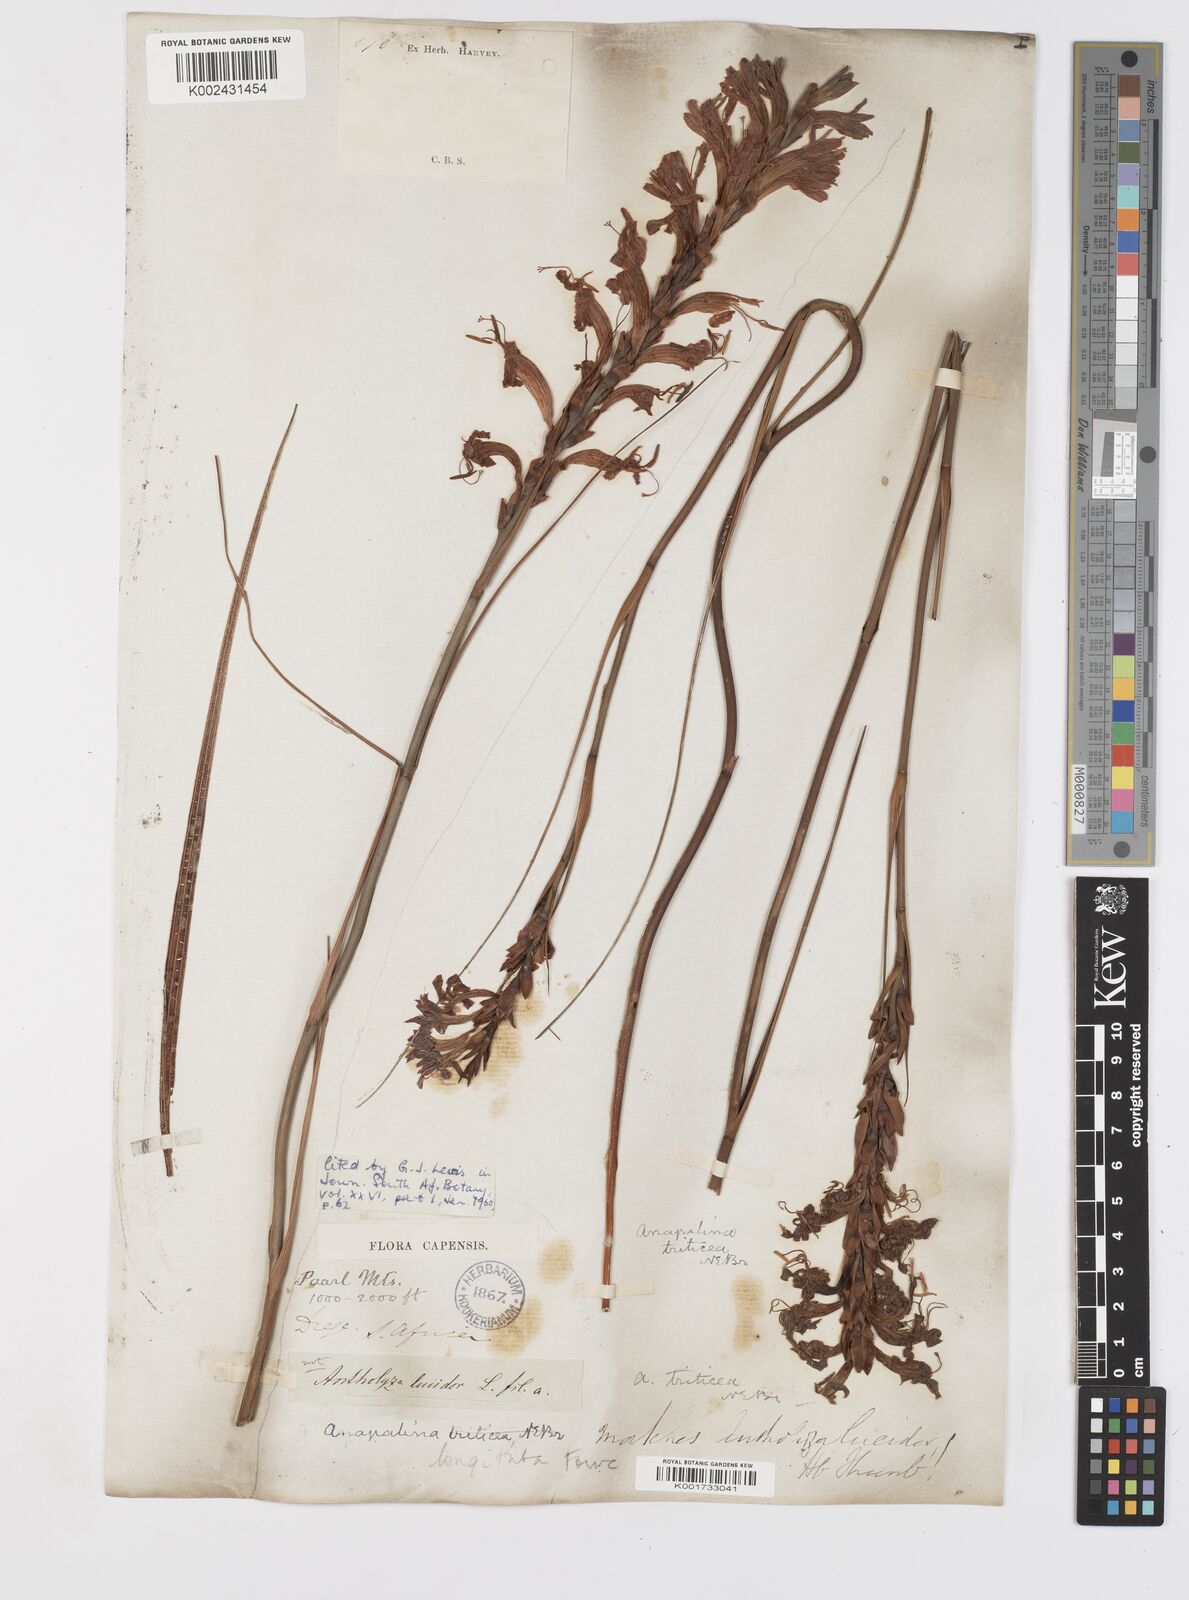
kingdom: Plantae
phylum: Tracheophyta
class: Liliopsida
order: Asparagales
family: Iridaceae
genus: Tritoniopsis
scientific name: Tritoniopsis antholyza
